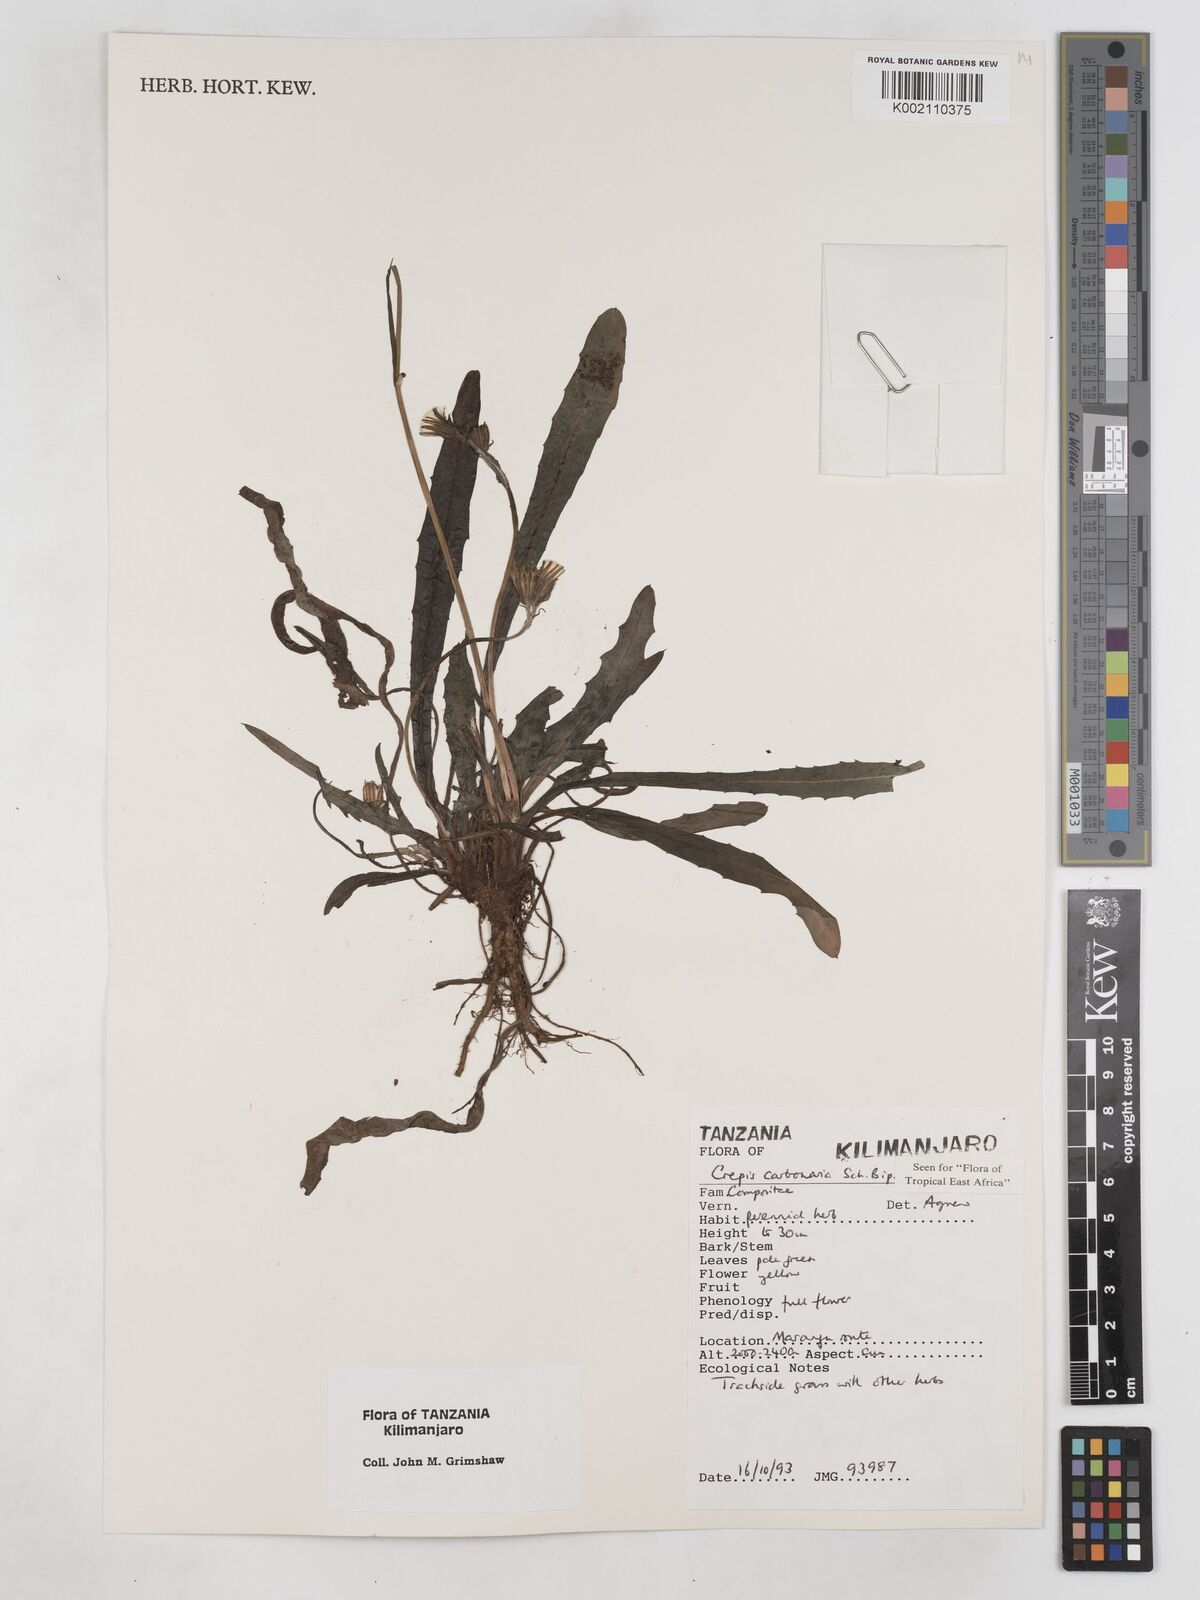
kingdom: Plantae
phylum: Tracheophyta
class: Magnoliopsida
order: Asterales
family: Asteraceae
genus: Crepis
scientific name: Crepis carbonaria
